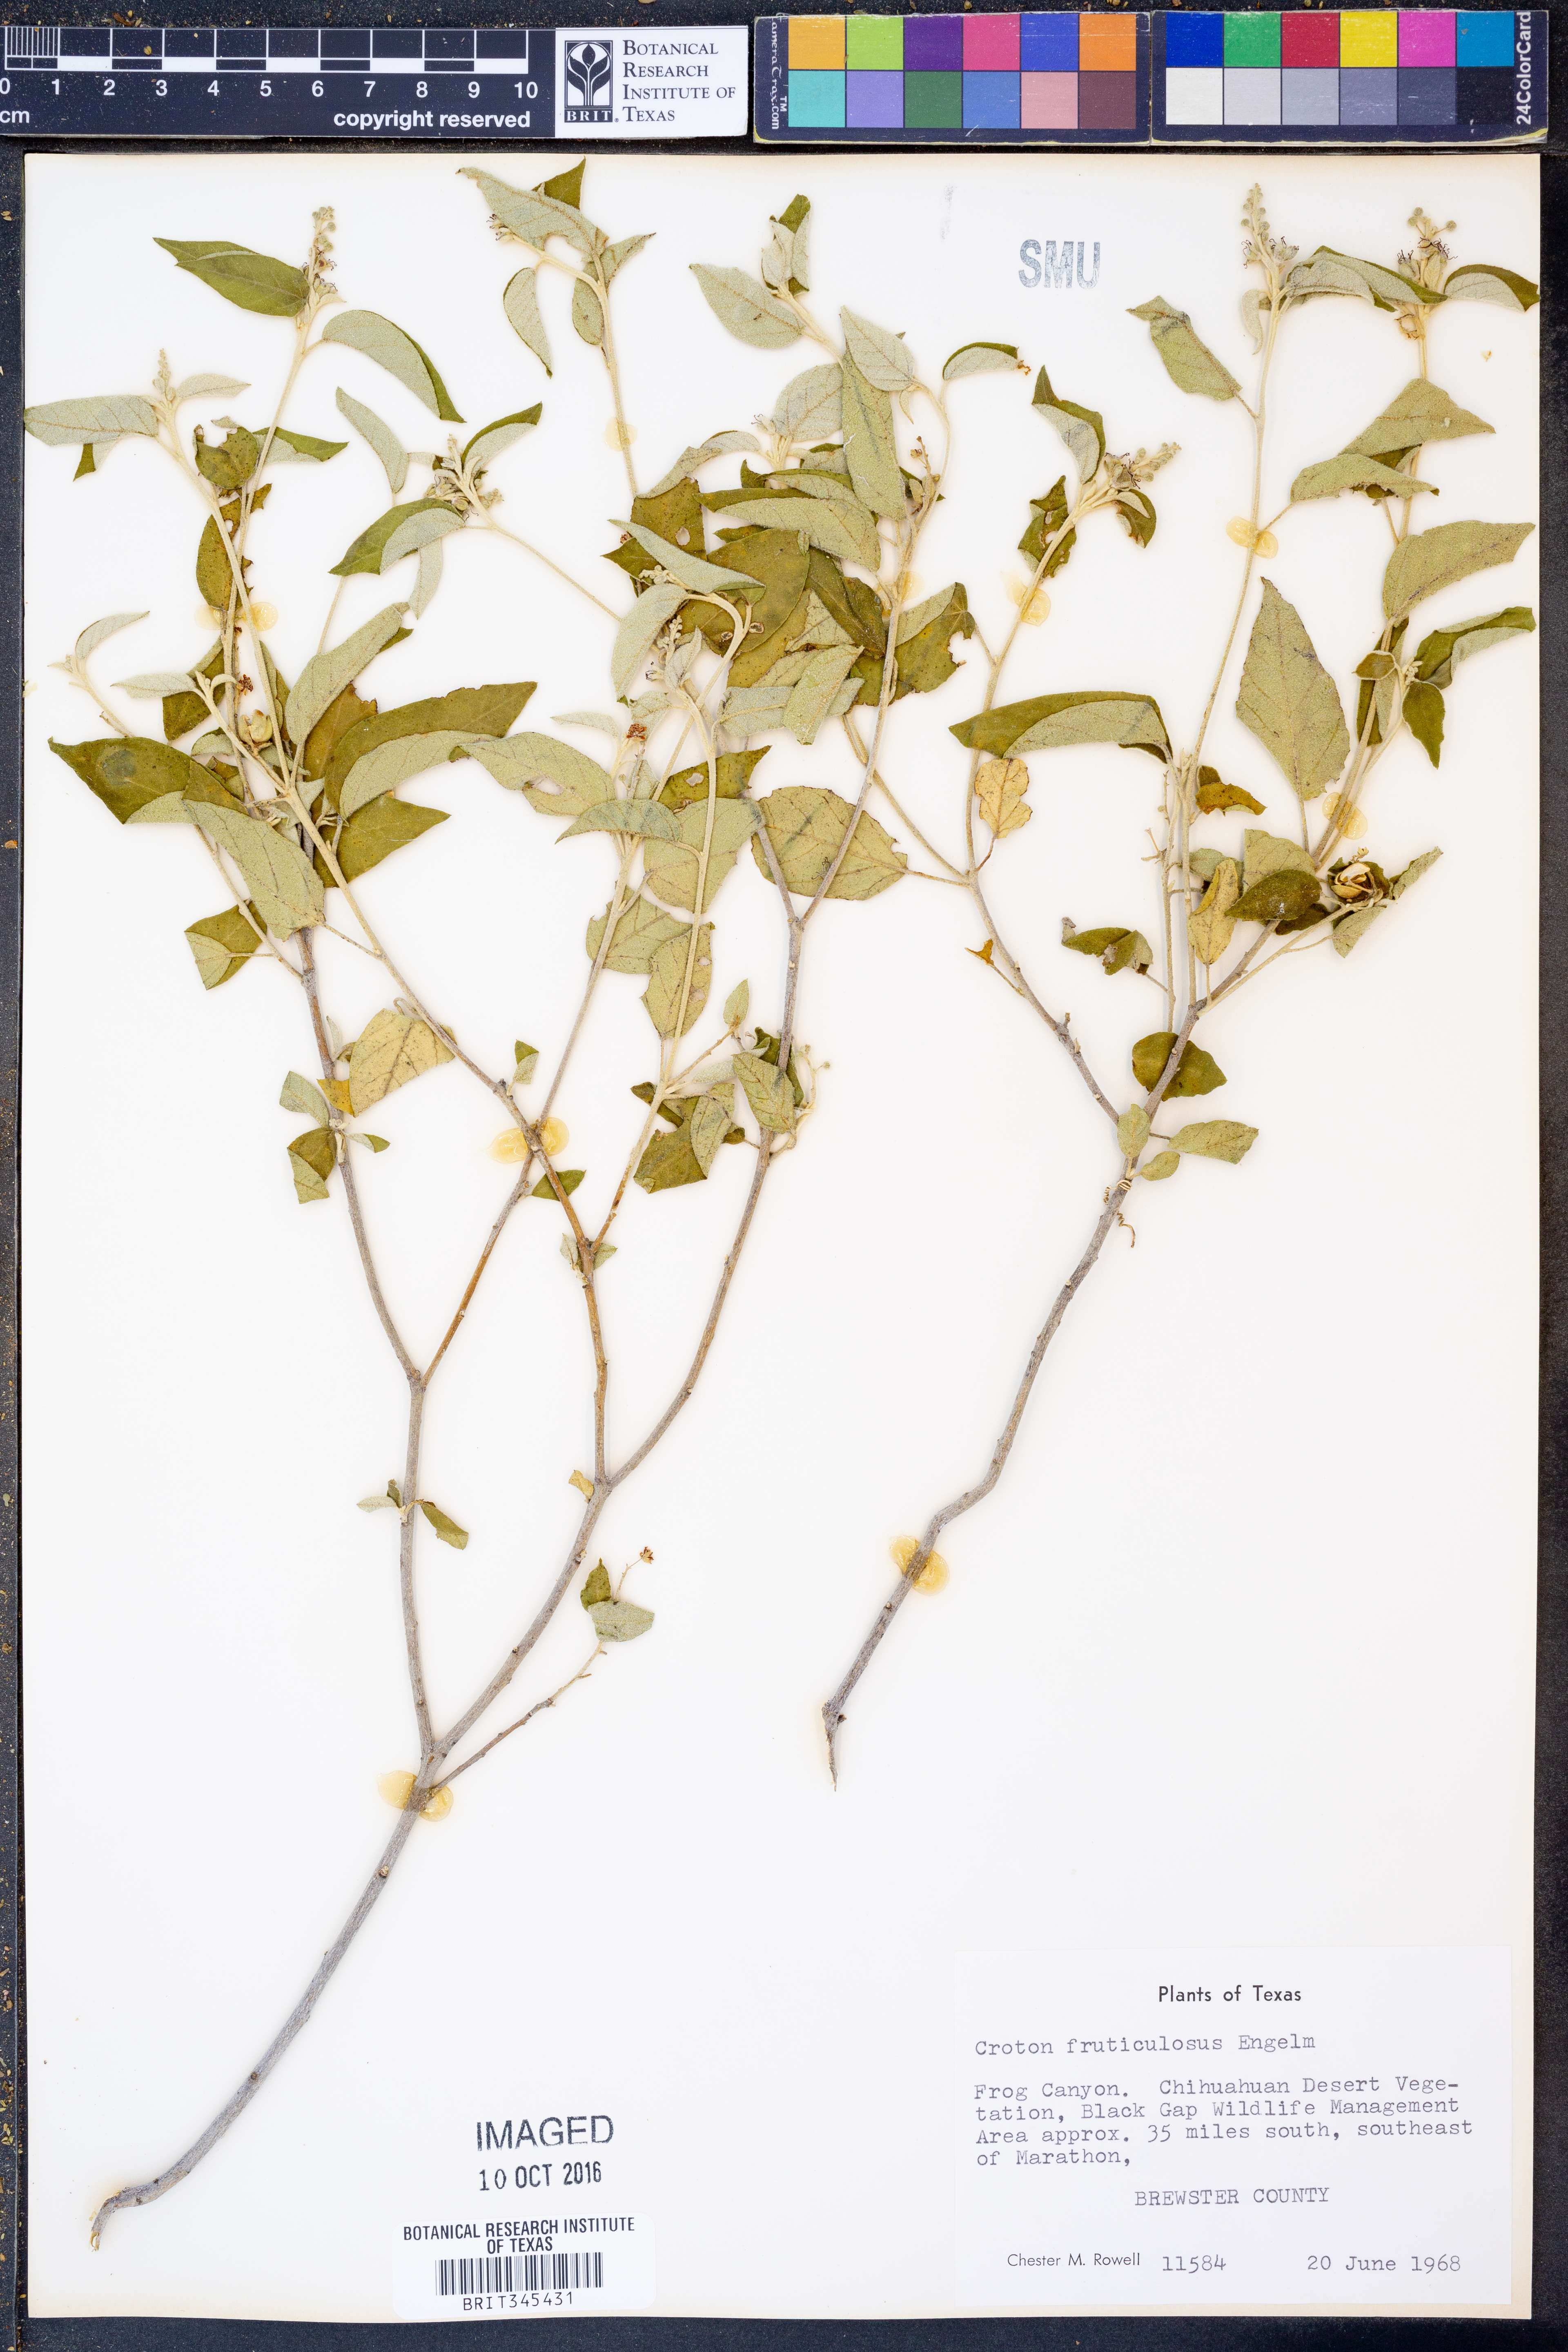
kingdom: Plantae
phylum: Tracheophyta
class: Magnoliopsida
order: Malpighiales
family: Euphorbiaceae
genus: Croton
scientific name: Croton fruticulosus
